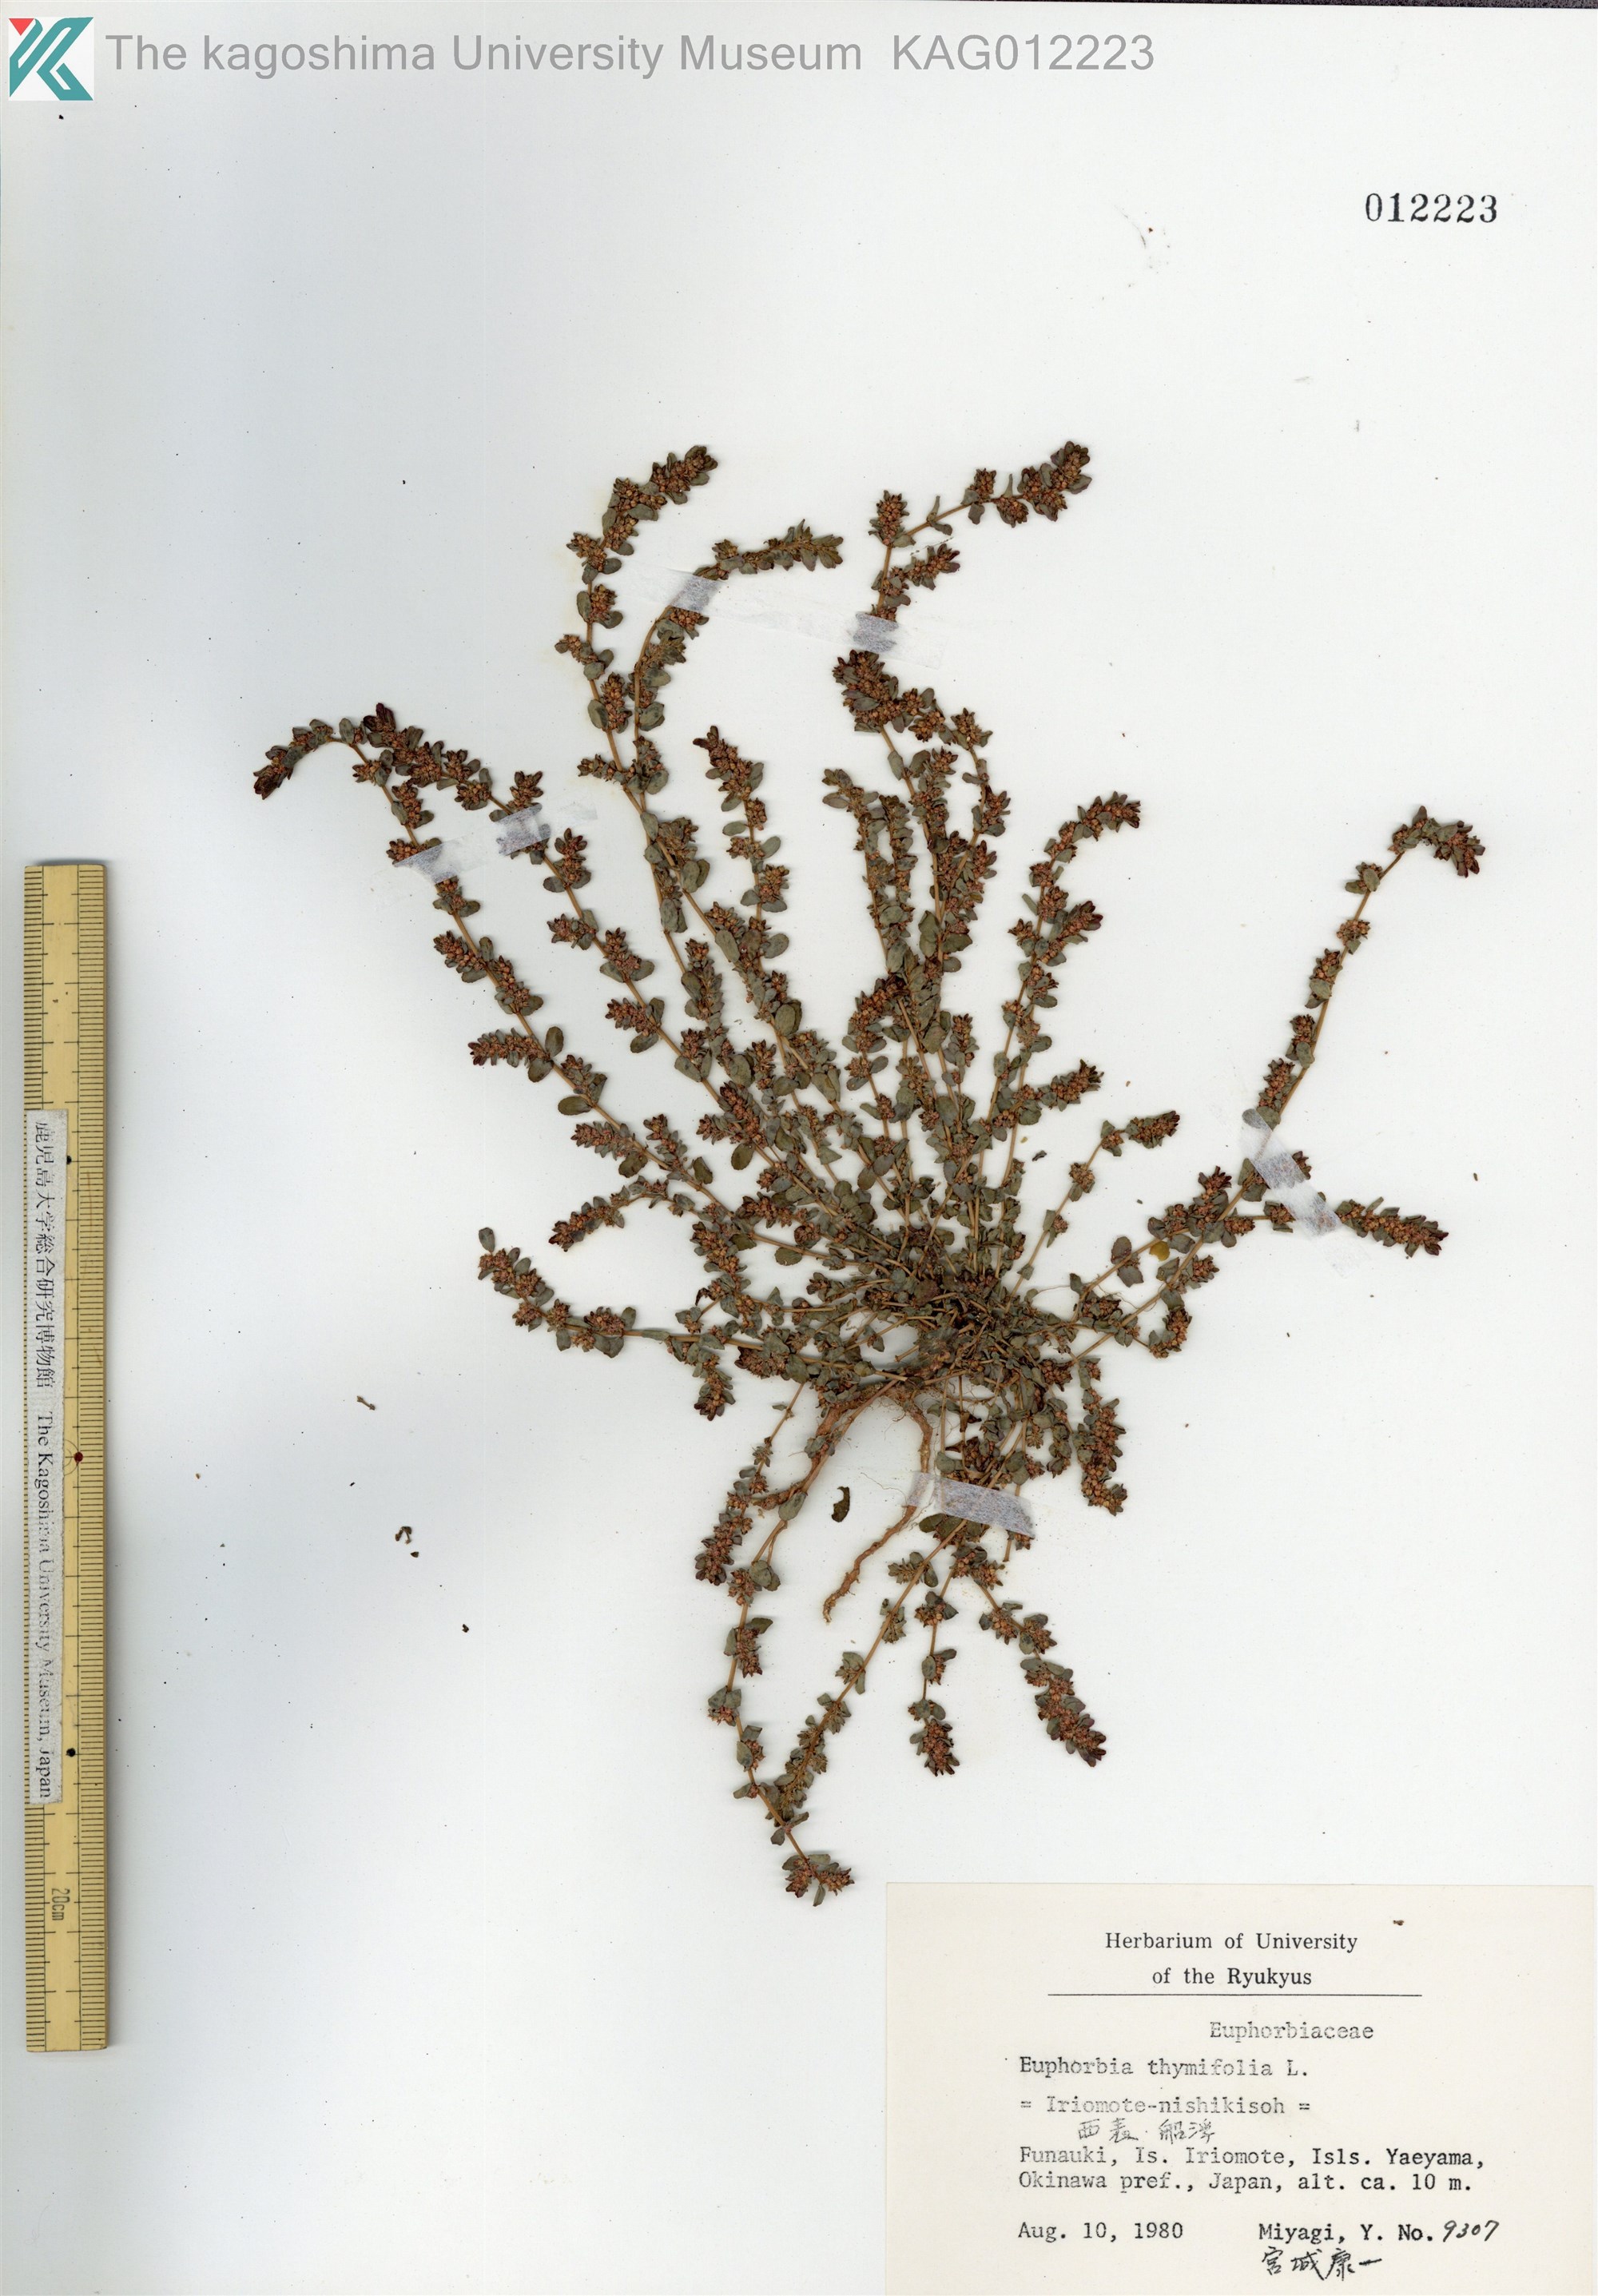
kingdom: Plantae
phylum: Tracheophyta
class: Magnoliopsida
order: Malpighiales
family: Euphorbiaceae
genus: Euphorbia
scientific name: Euphorbia thymifolia
